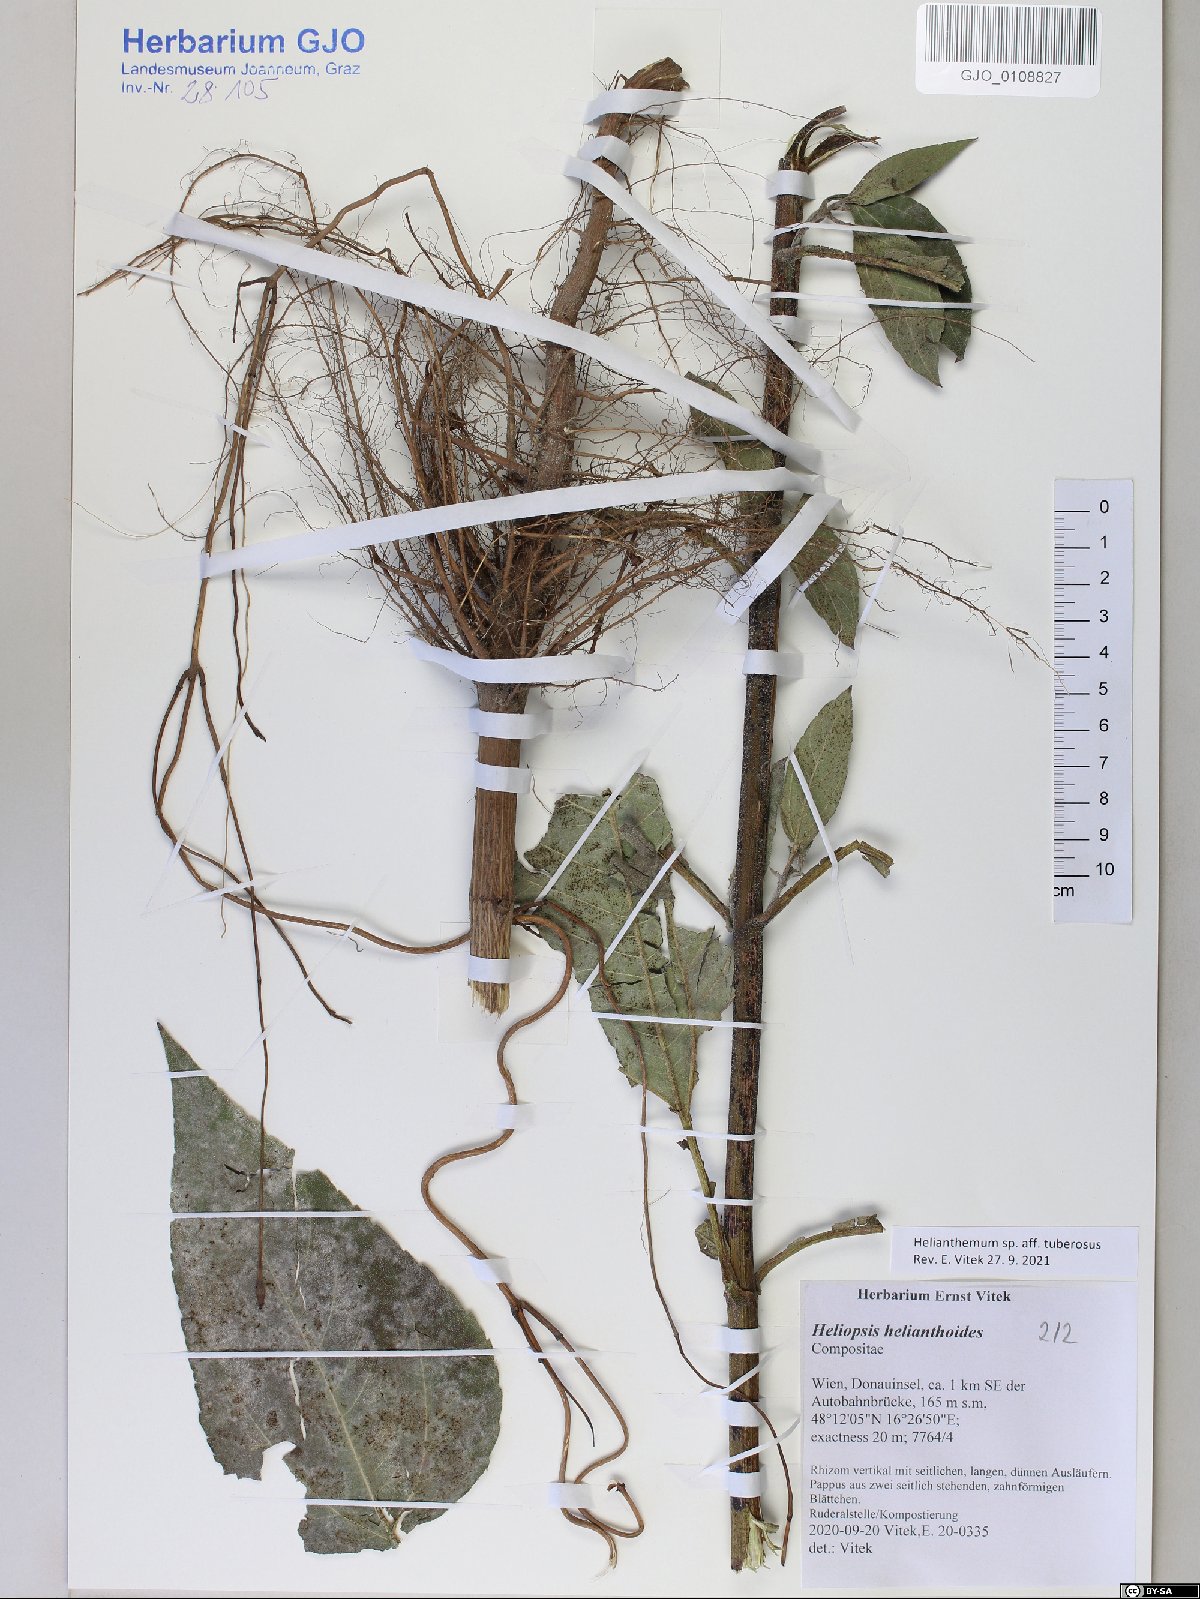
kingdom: Plantae
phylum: Tracheophyta
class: Magnoliopsida
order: Asterales
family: Asteraceae
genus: Helianthus
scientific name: Helianthus tuberosus
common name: Jerusalem artichoke
